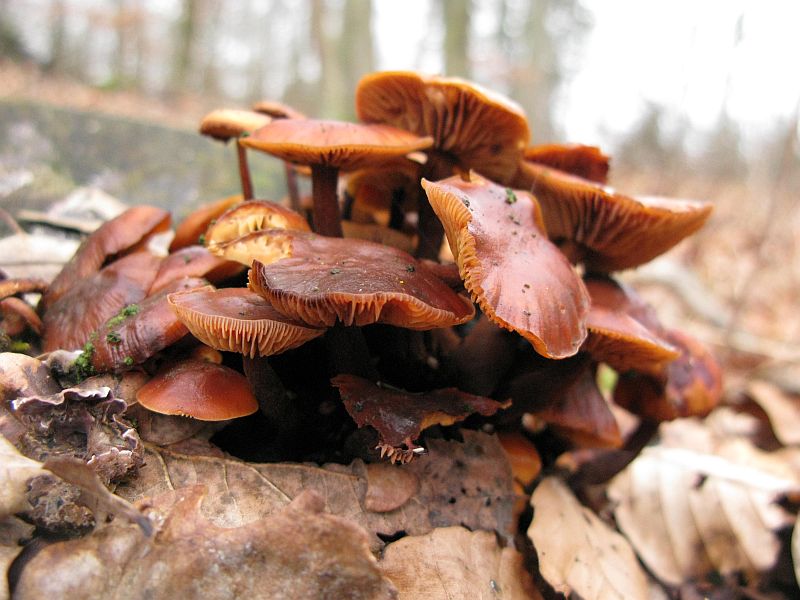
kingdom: Fungi
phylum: Basidiomycota
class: Agaricomycetes
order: Agaricales
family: Physalacriaceae
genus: Flammulina
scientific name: Flammulina velutipes
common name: gul fløjlsfod
